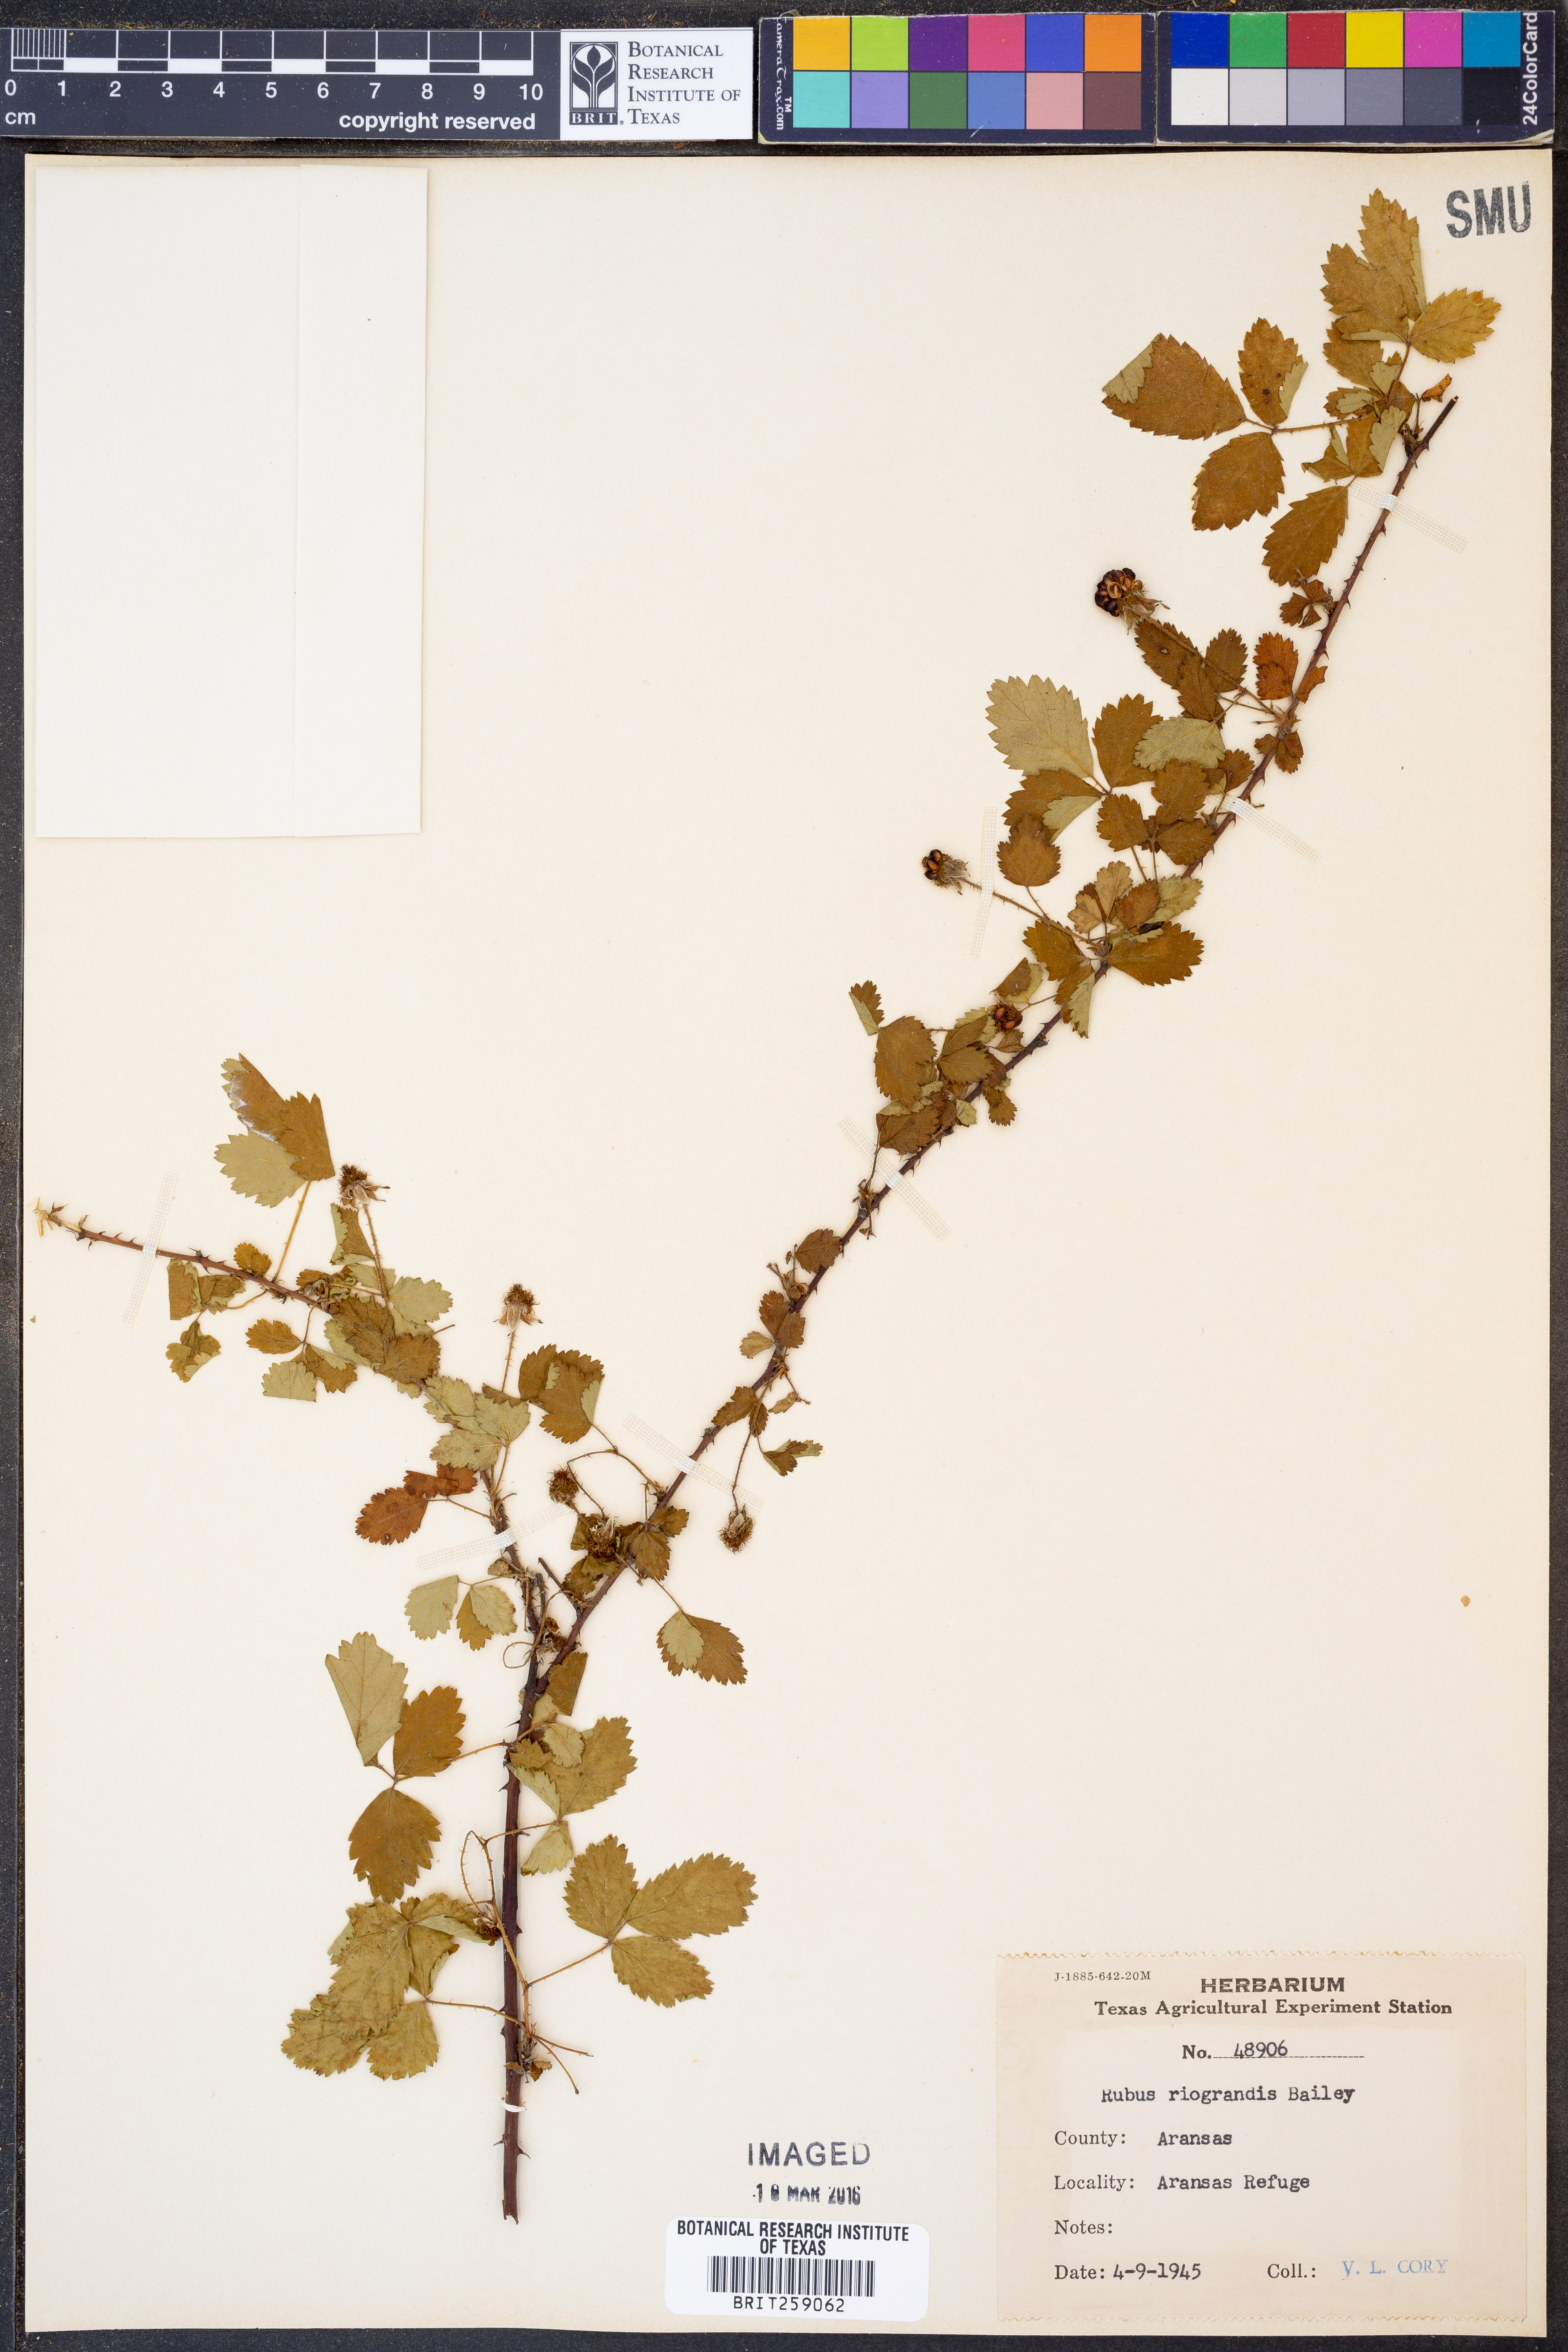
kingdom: Plantae
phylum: Tracheophyta
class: Magnoliopsida
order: Rosales
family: Rosaceae
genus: Rubus
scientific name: Rubus riograndis
